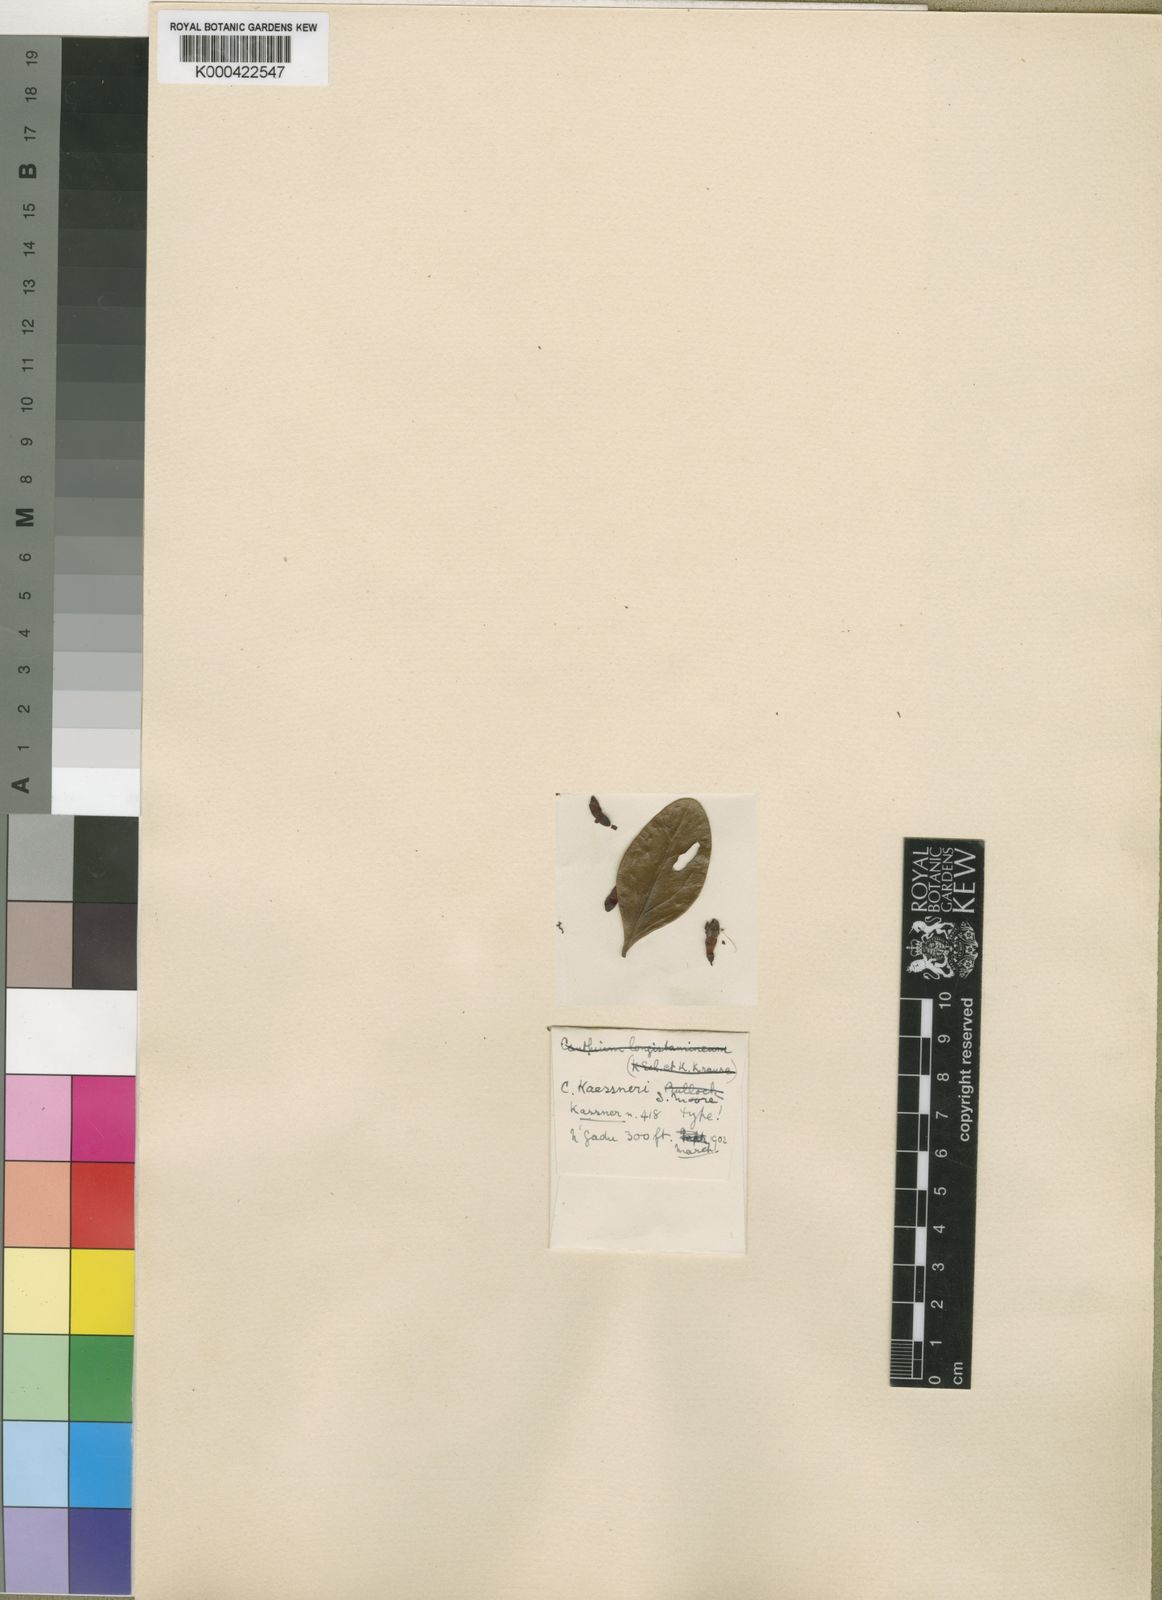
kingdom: Plantae
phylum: Tracheophyta
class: Magnoliopsida
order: Gentianales
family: Rubiaceae
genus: Psydrax
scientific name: Psydrax kaessneri
